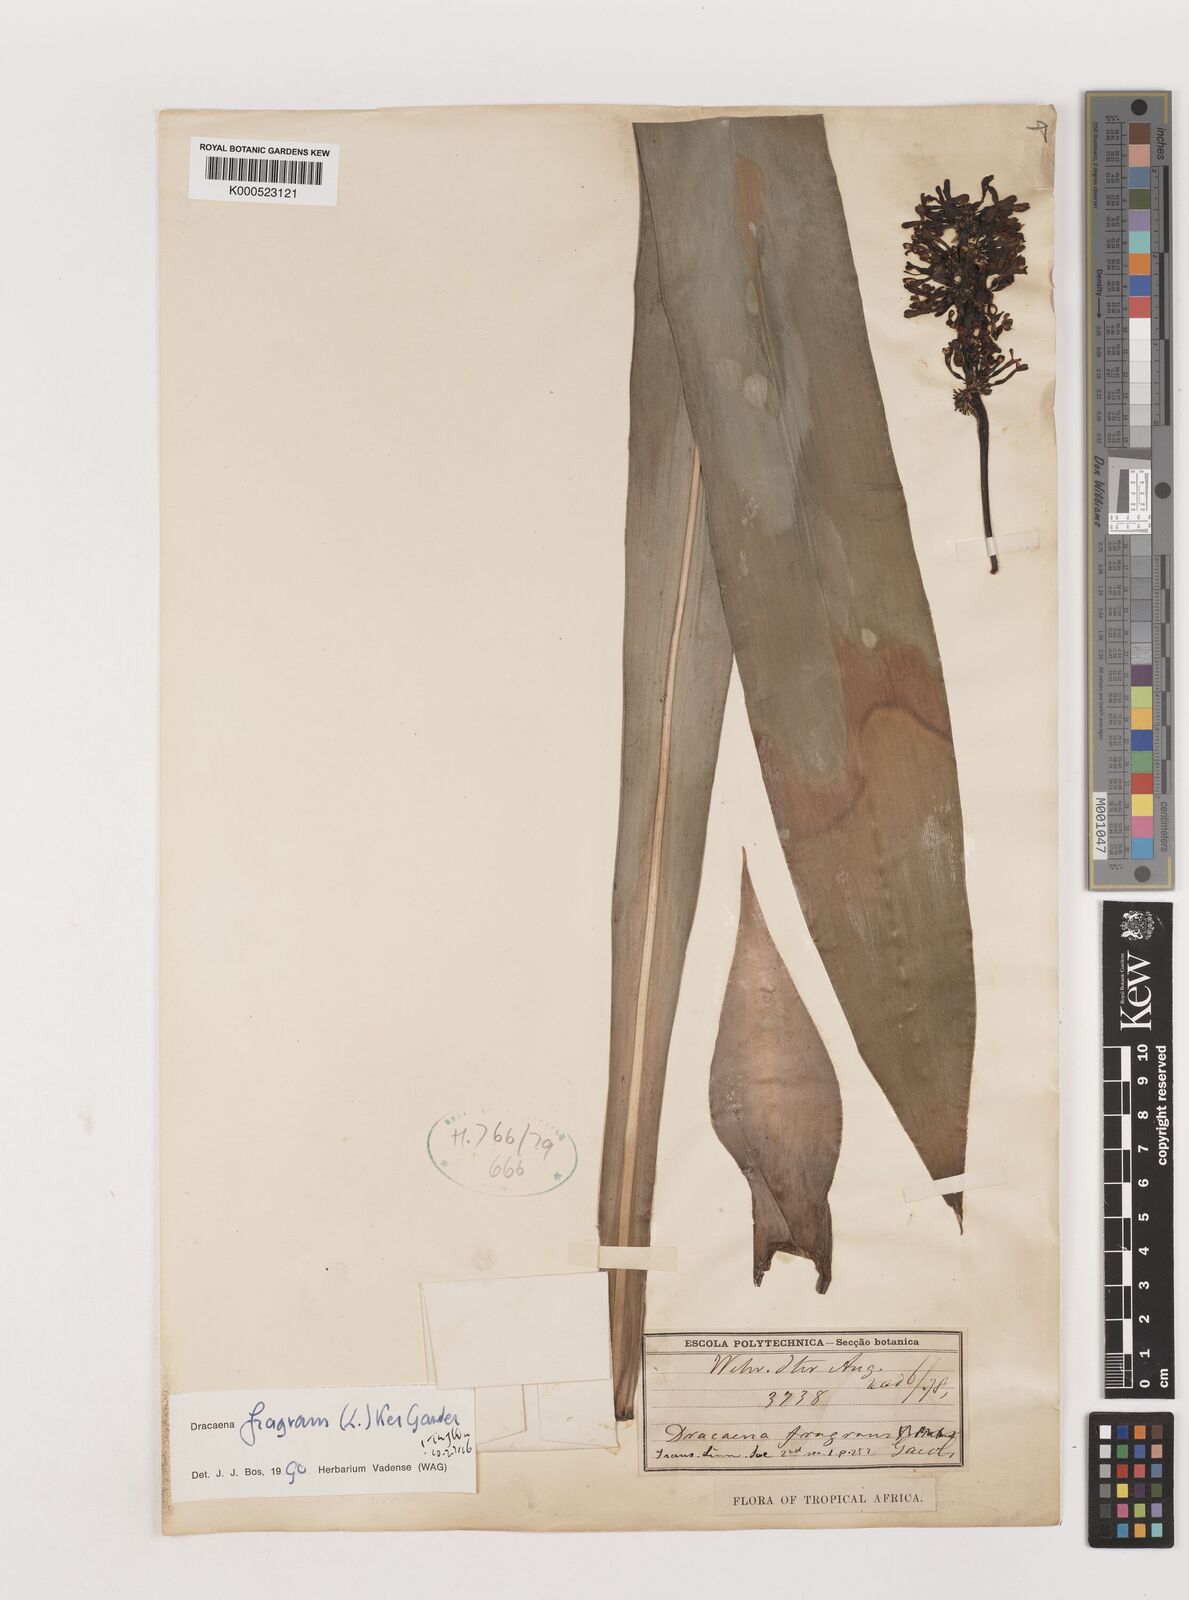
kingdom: Plantae
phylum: Tracheophyta
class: Liliopsida
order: Asparagales
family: Asparagaceae
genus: Dracaena
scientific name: Dracaena fragrans
